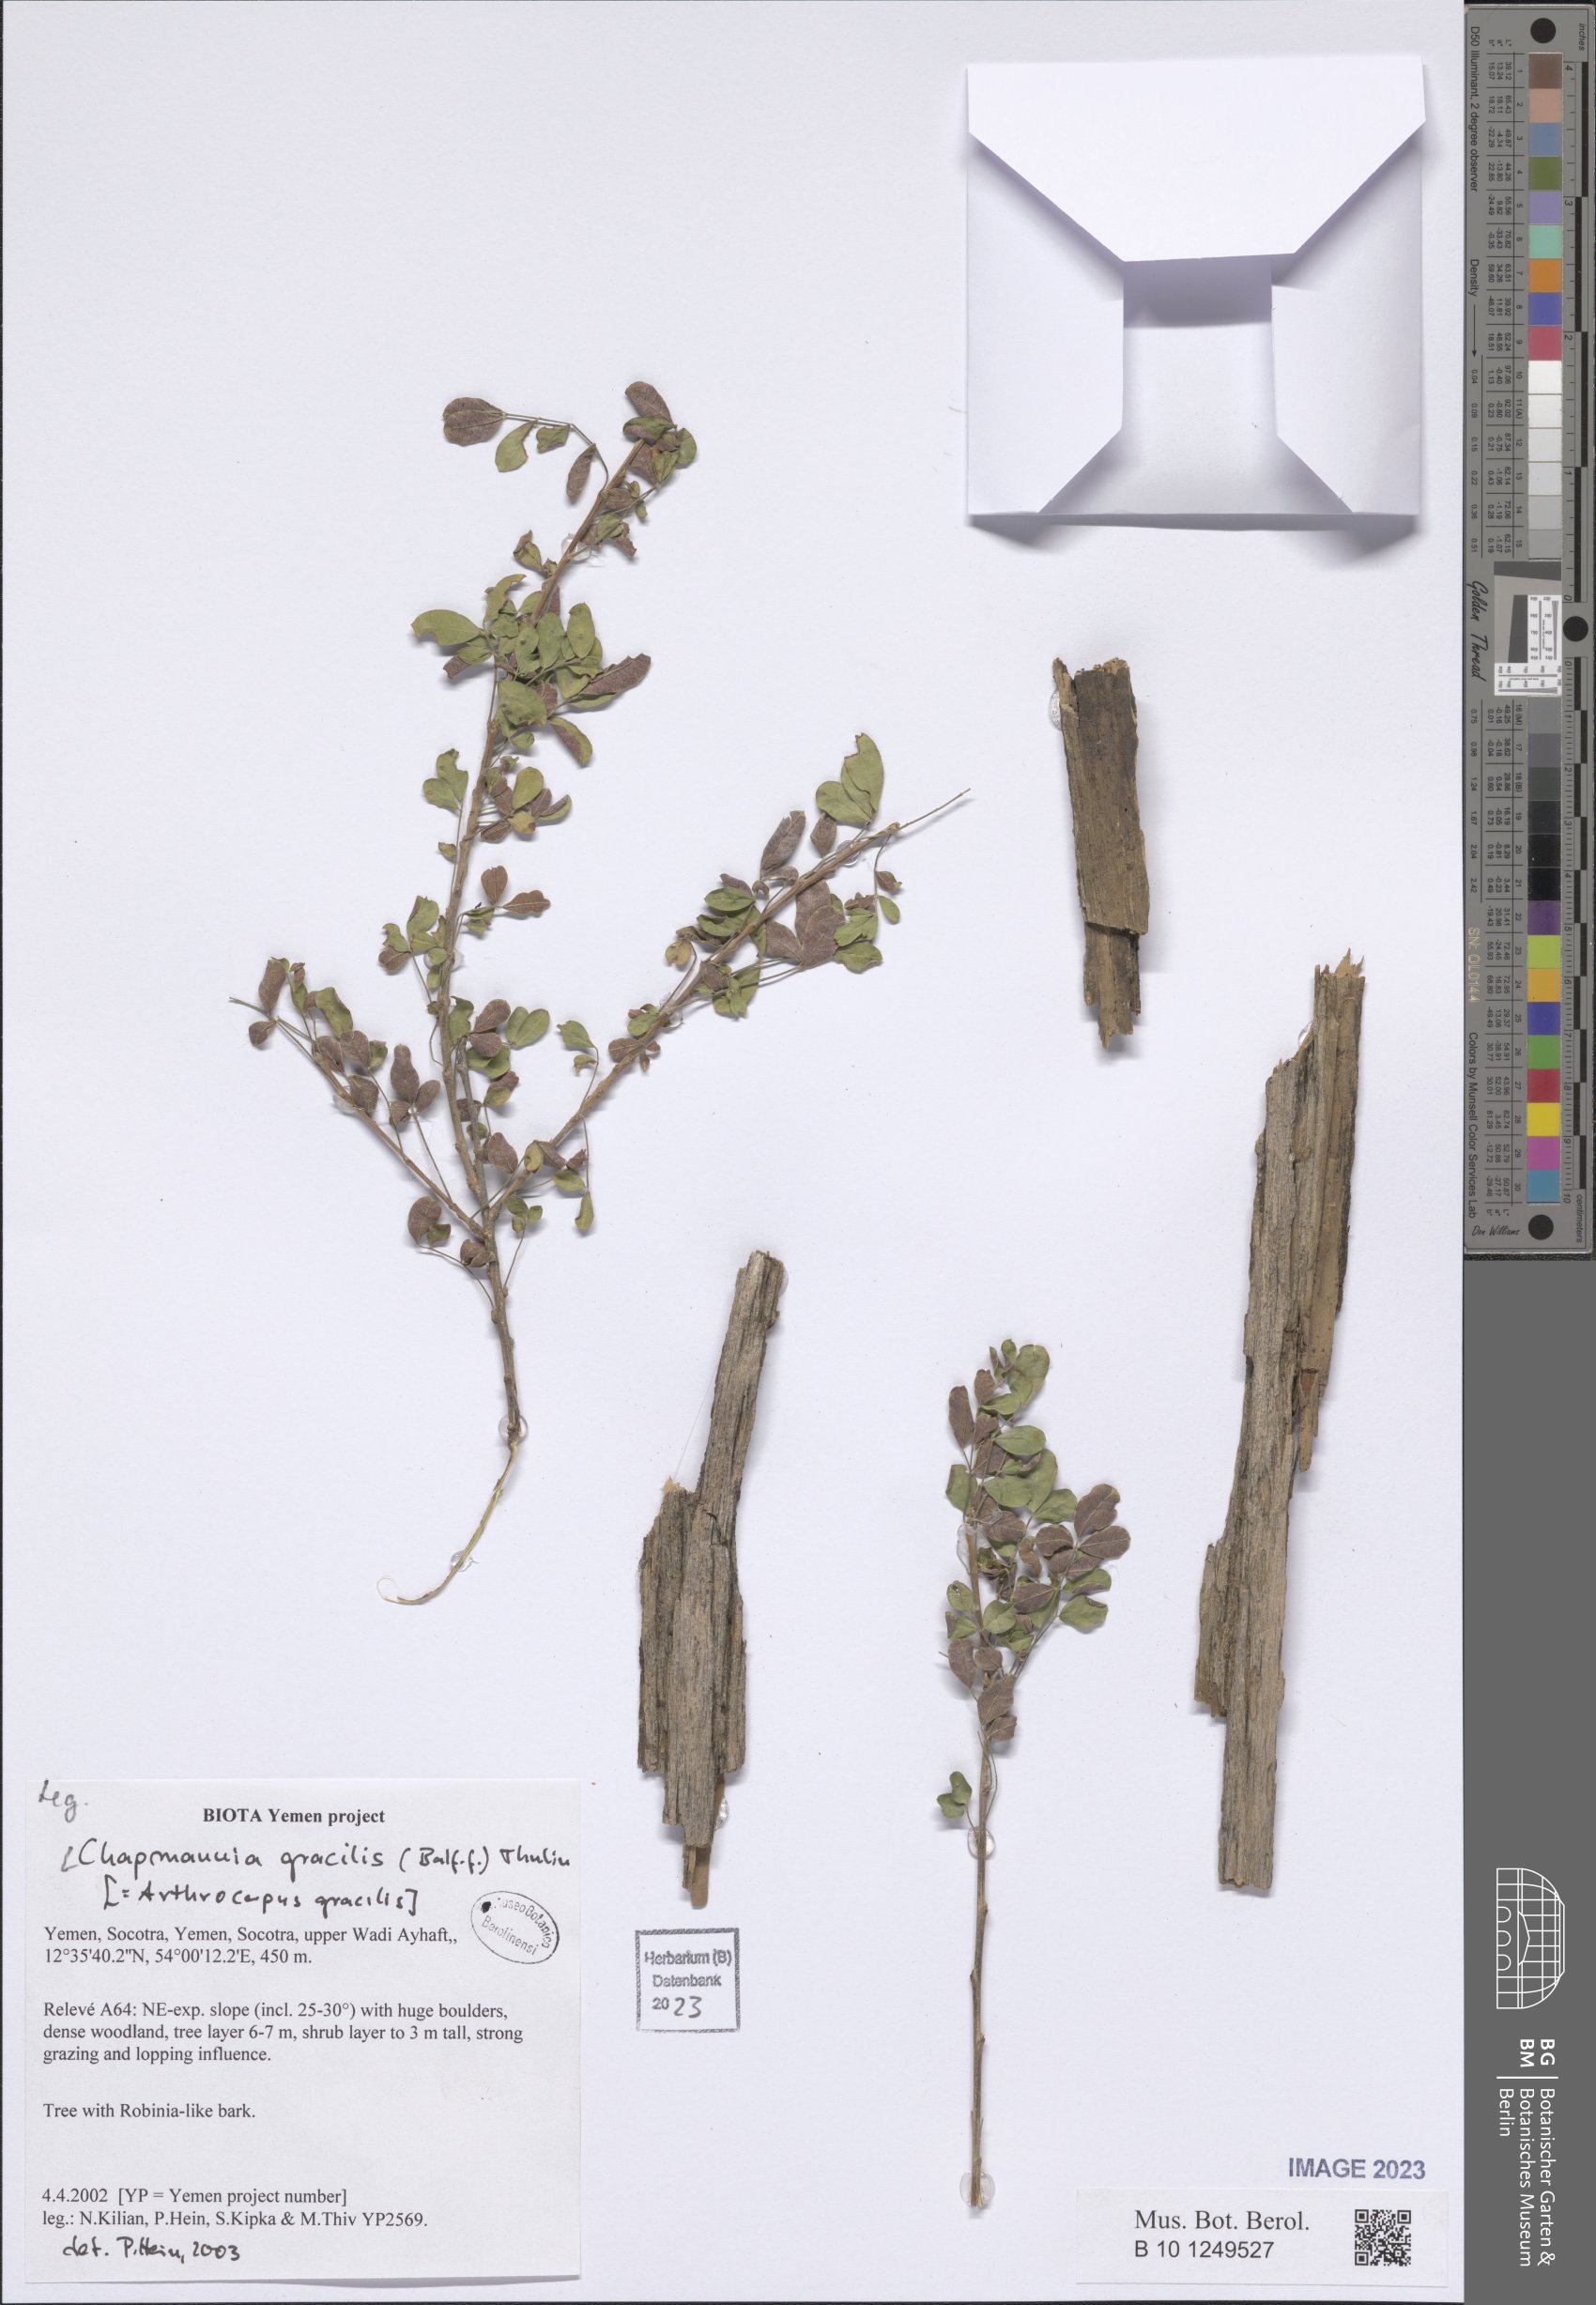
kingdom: Plantae
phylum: Tracheophyta
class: Magnoliopsida
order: Fabales
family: Fabaceae
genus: Chapmannia
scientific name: Chapmannia gracilis
